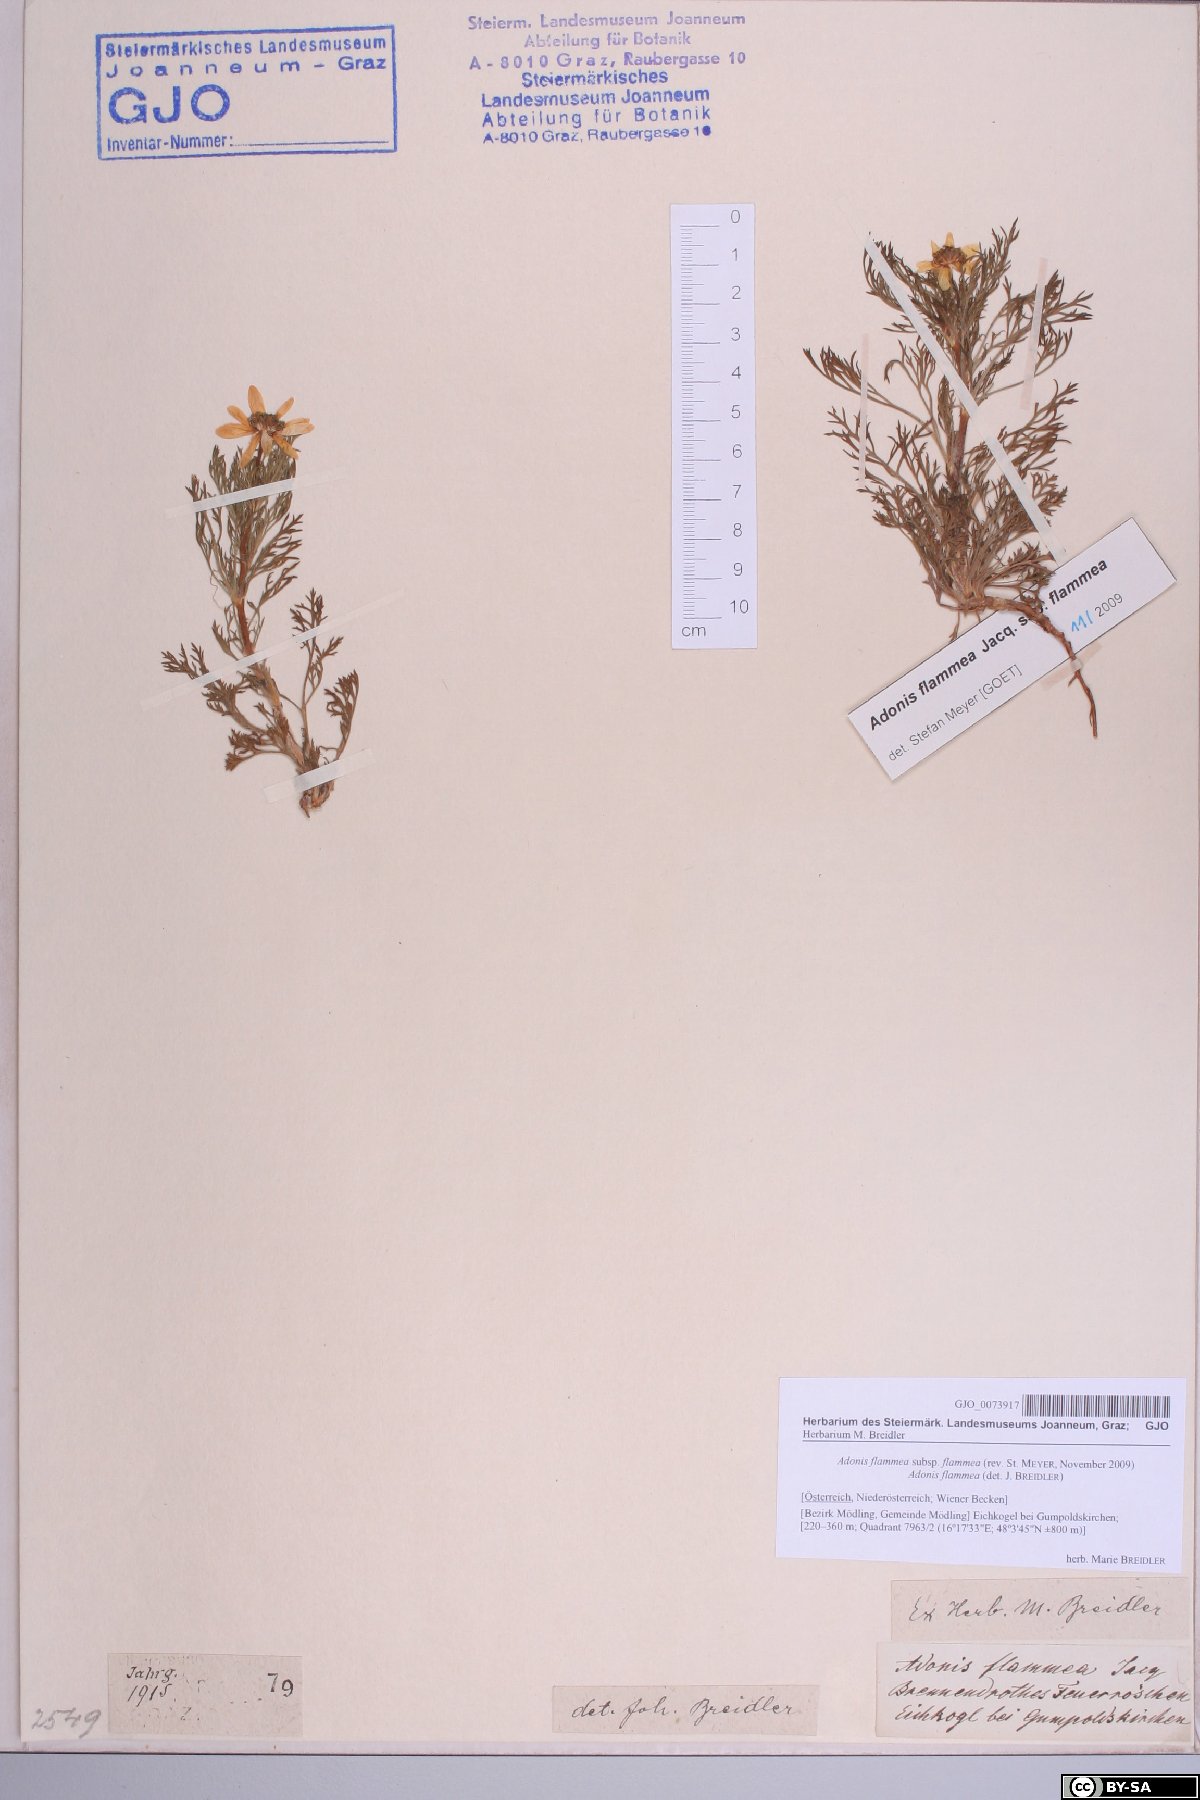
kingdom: Plantae
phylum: Tracheophyta
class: Magnoliopsida
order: Ranunculales
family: Ranunculaceae
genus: Adonis
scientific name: Adonis flammea
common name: Large pheasant's-eye
